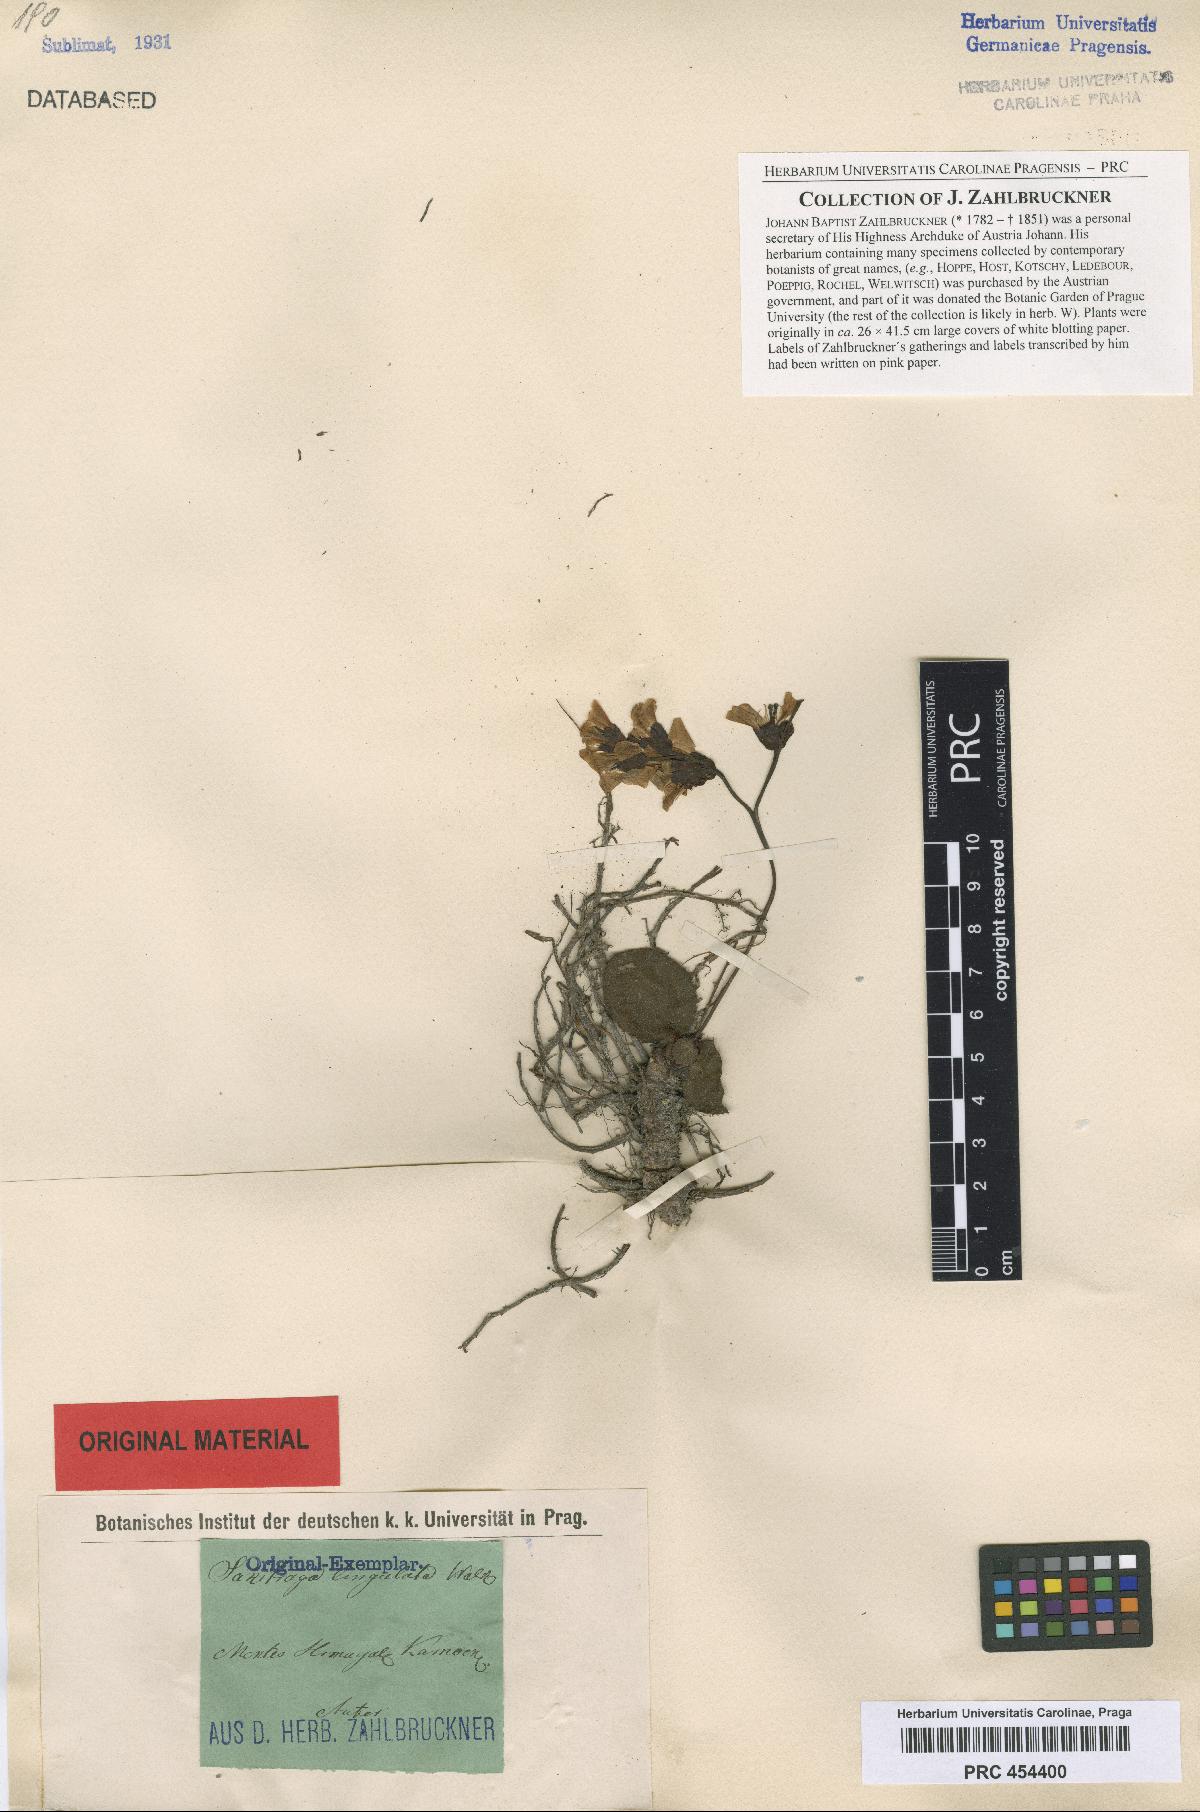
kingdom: Plantae
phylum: Tracheophyta
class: Magnoliopsida
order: Saxifragales
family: Saxifragaceae
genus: Bergenia
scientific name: Bergenia pacumbis
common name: Chinese bergenia
